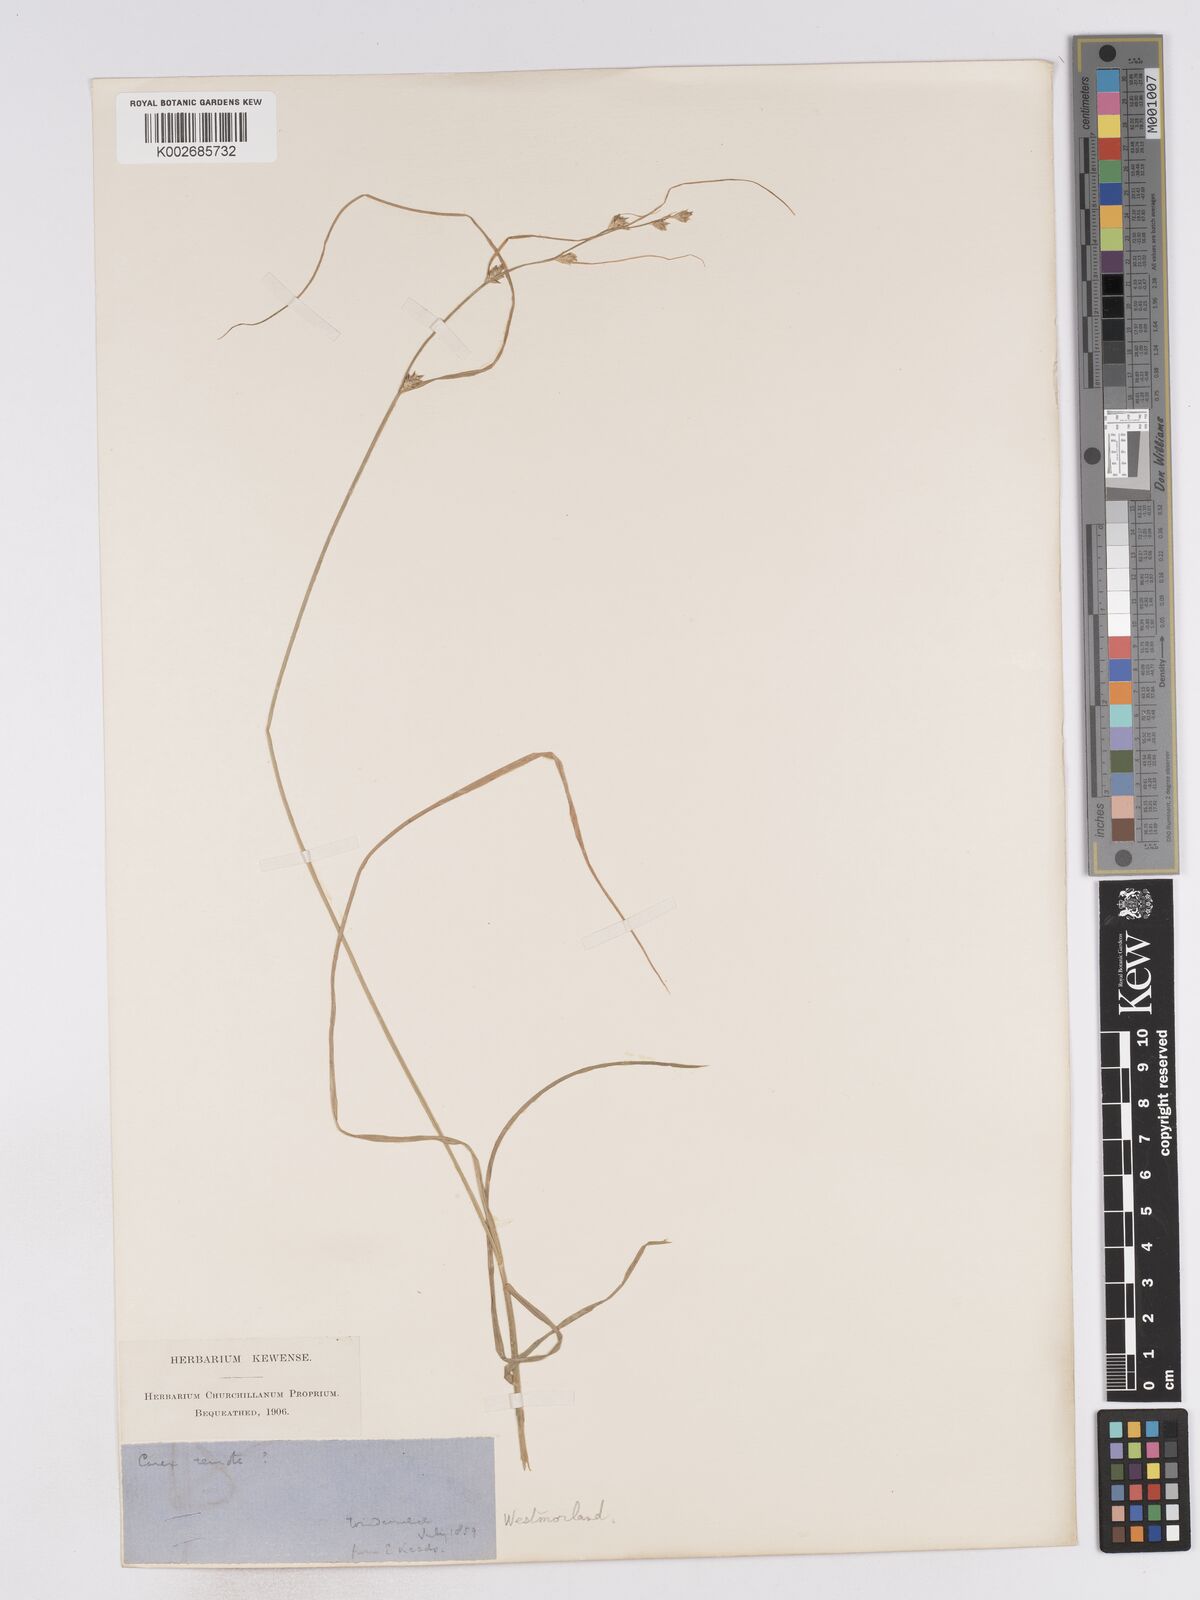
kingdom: Plantae
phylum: Tracheophyta
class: Liliopsida
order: Poales
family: Cyperaceae
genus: Carex
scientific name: Carex remota
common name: Remote sedge
